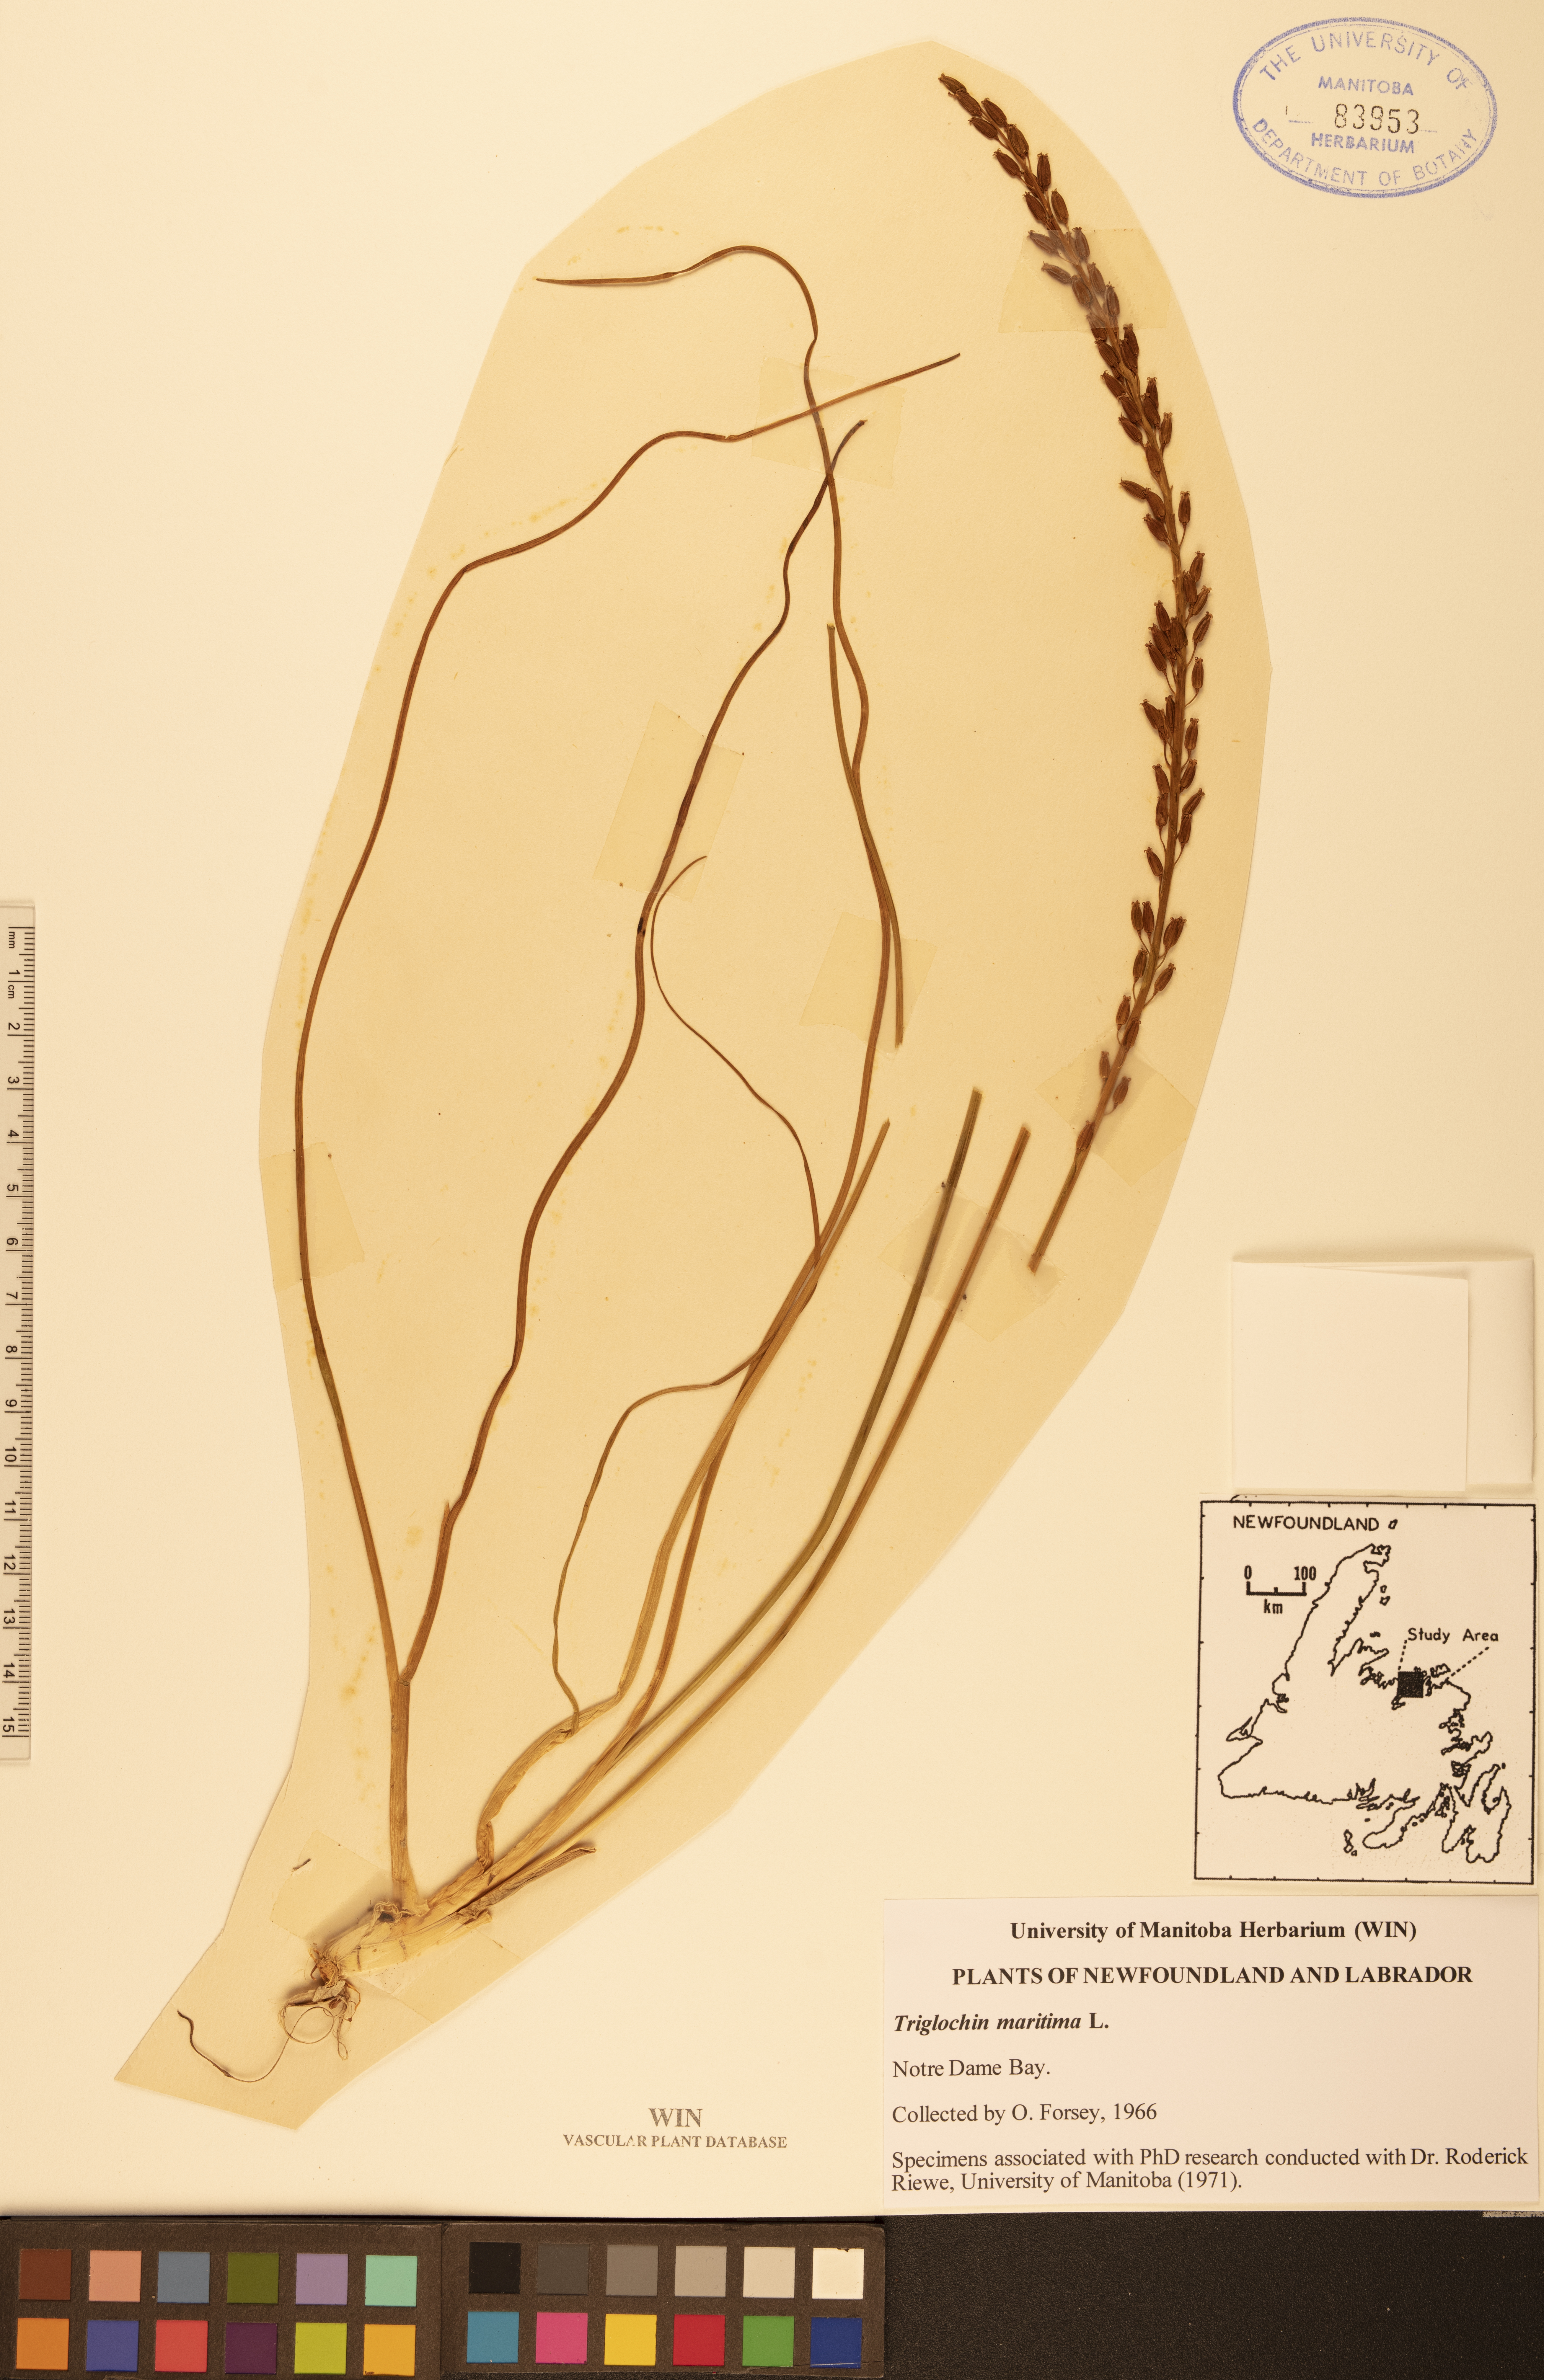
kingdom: Plantae
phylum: Tracheophyta
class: Liliopsida
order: Alismatales
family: Juncaginaceae
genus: Triglochin
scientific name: Triglochin maritima
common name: Sea arrowgrass
